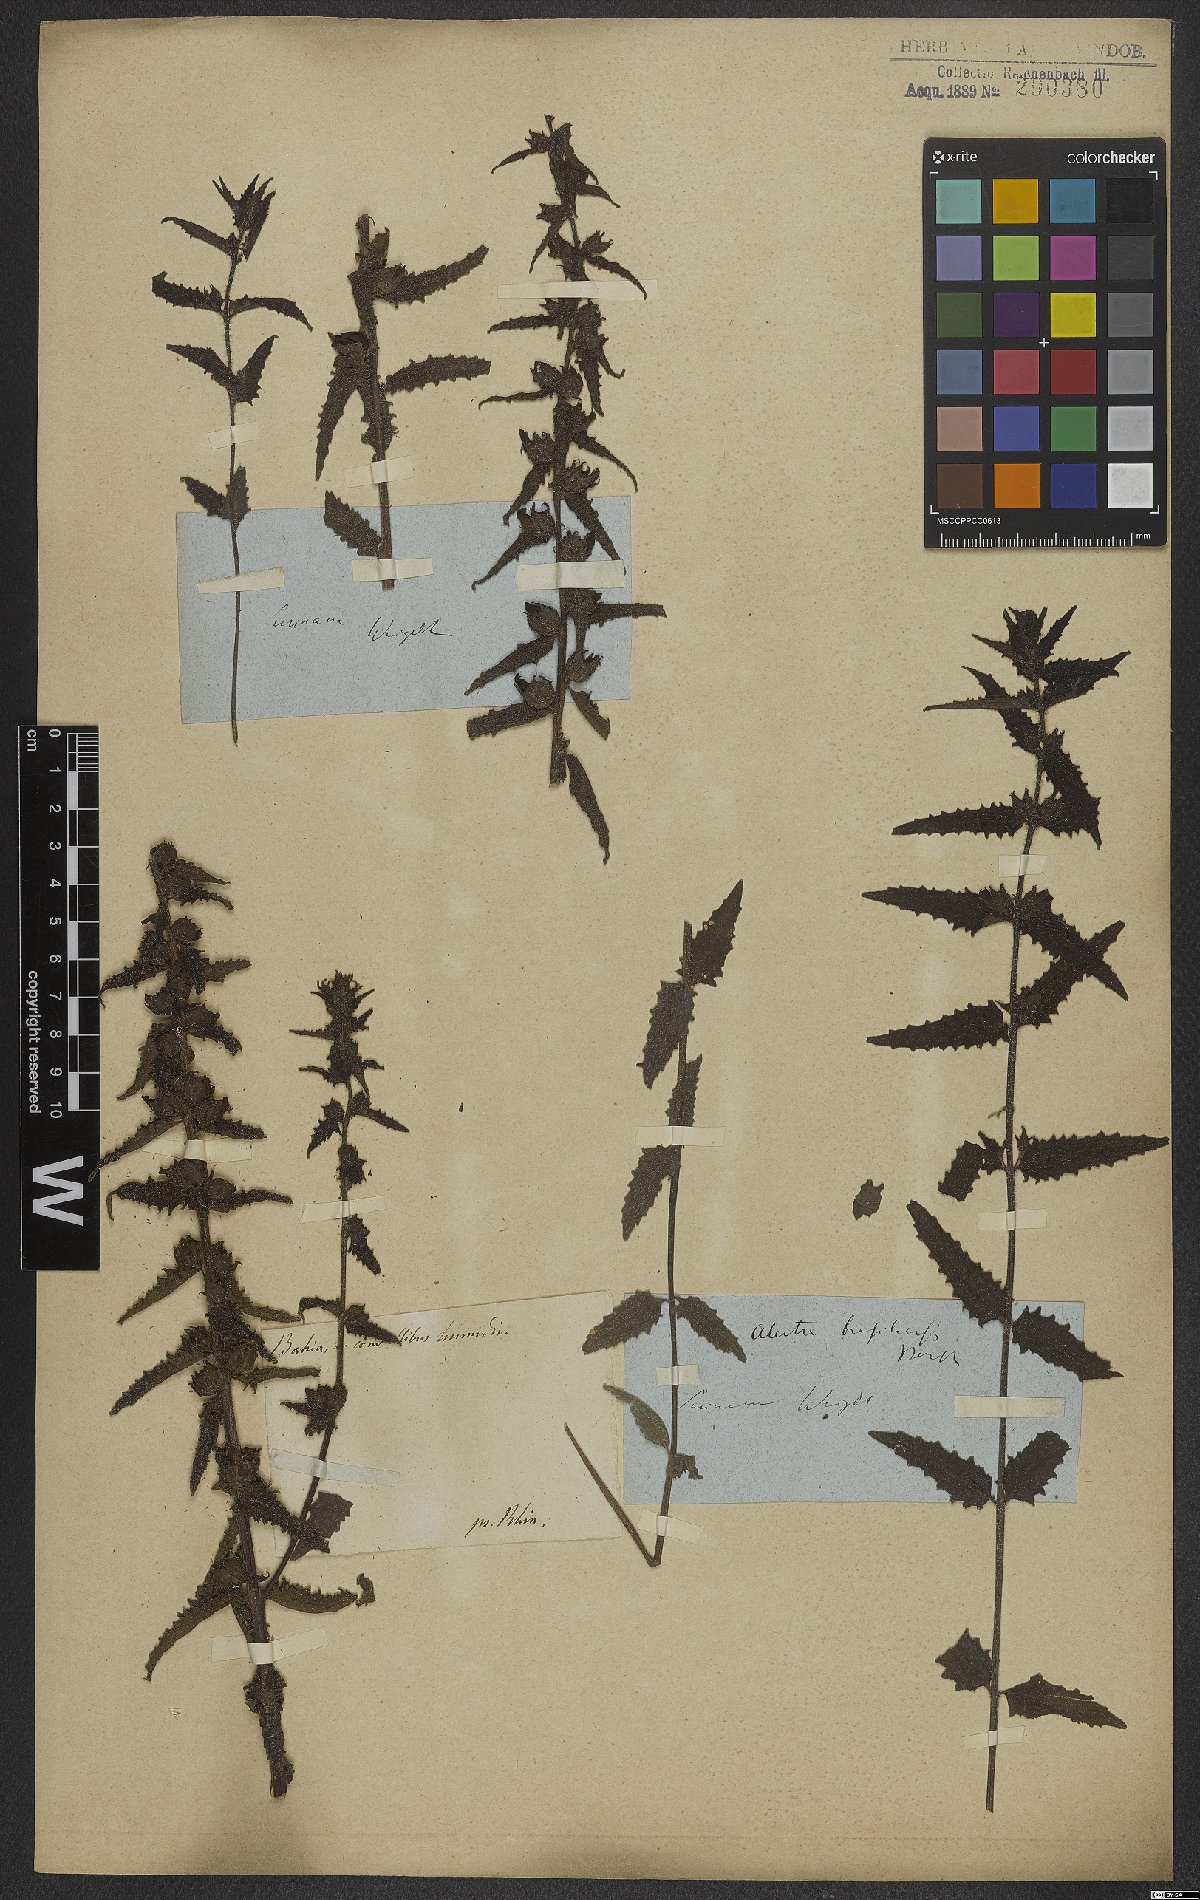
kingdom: Plantae
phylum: Tracheophyta
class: Magnoliopsida
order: Lamiales
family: Orobanchaceae
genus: Melasma
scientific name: Melasma melampyroides
